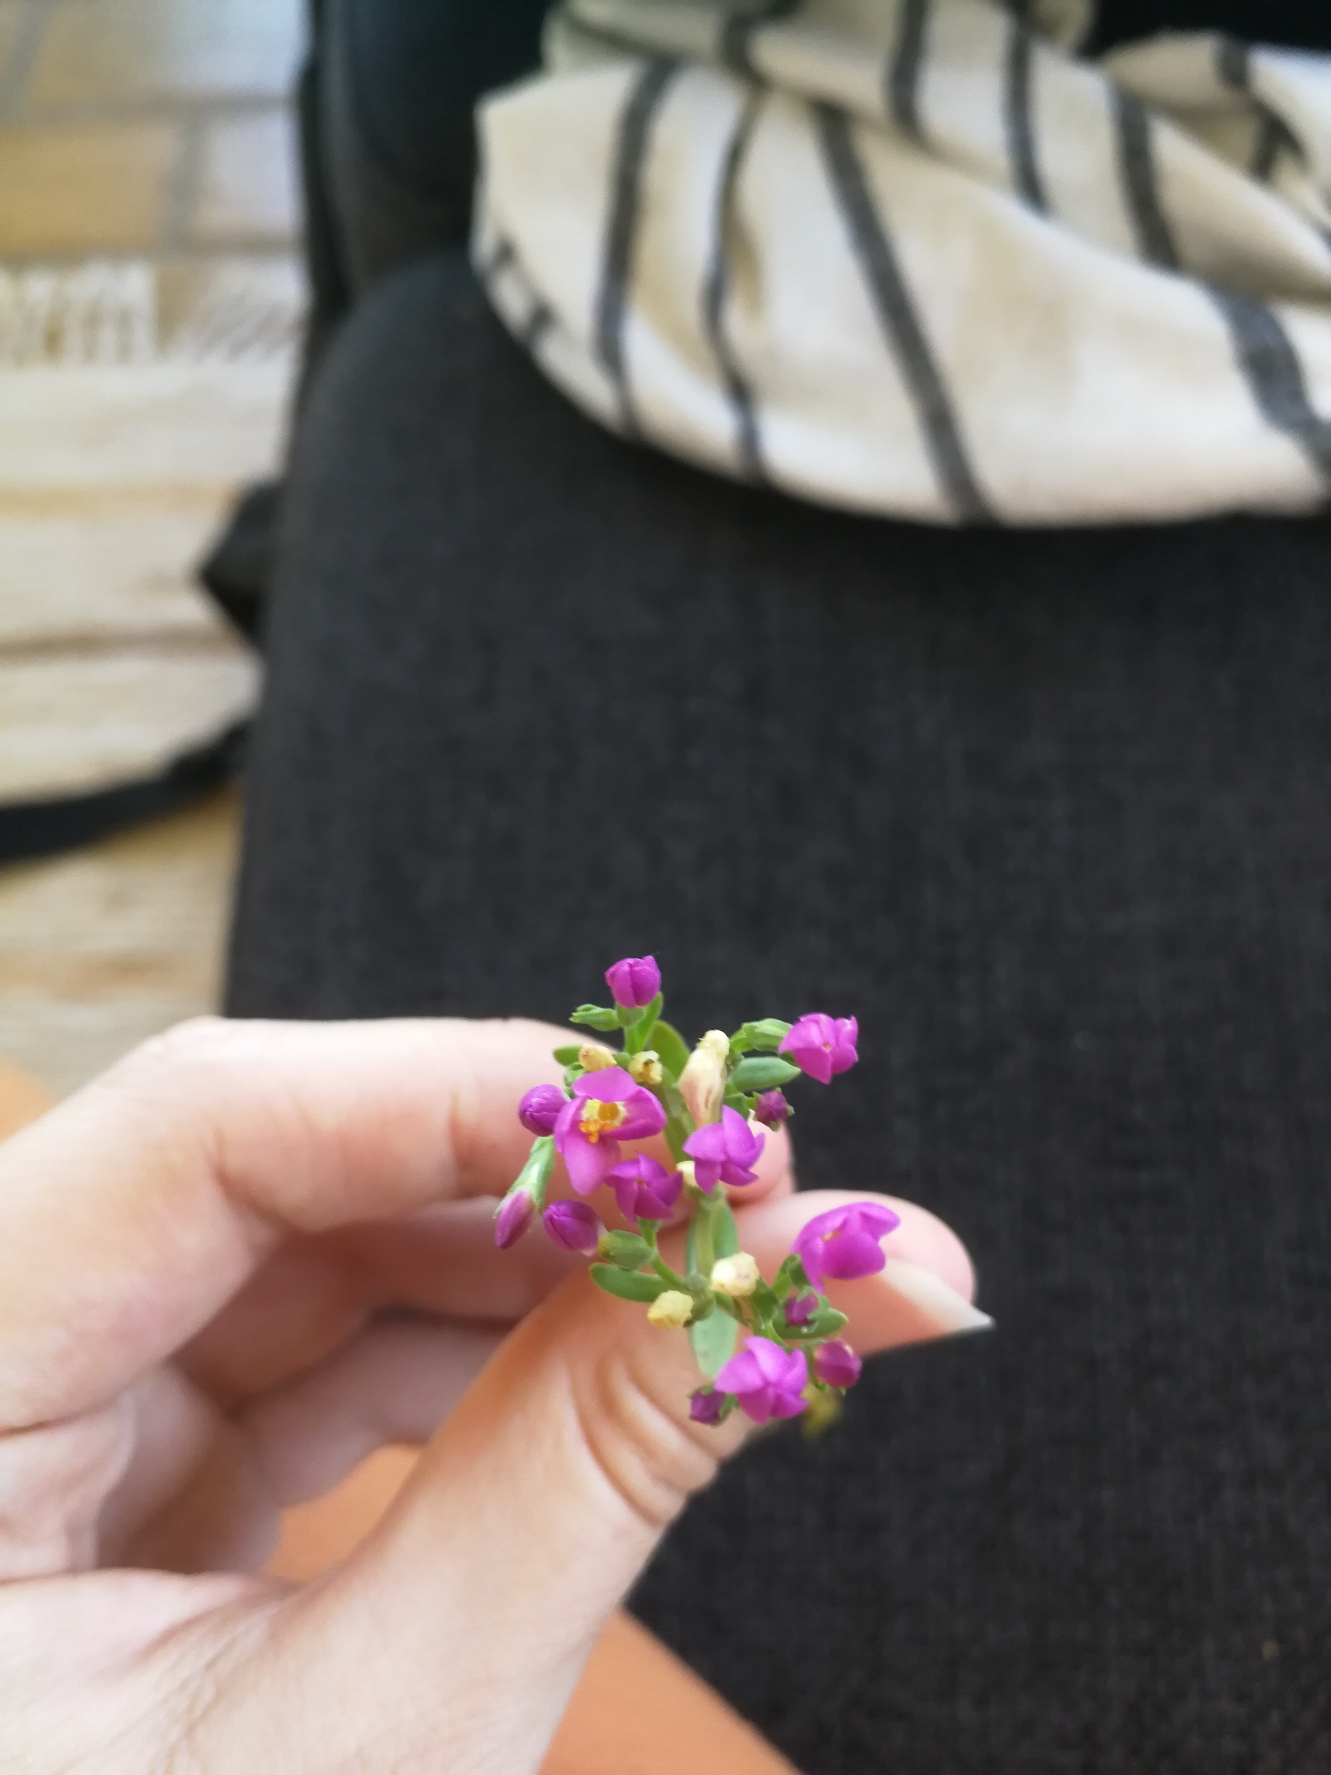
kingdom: Plantae
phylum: Tracheophyta
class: Magnoliopsida
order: Gentianales
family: Gentianaceae
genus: Centaurium
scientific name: Centaurium erythraea
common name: Mark-tusindgylden
